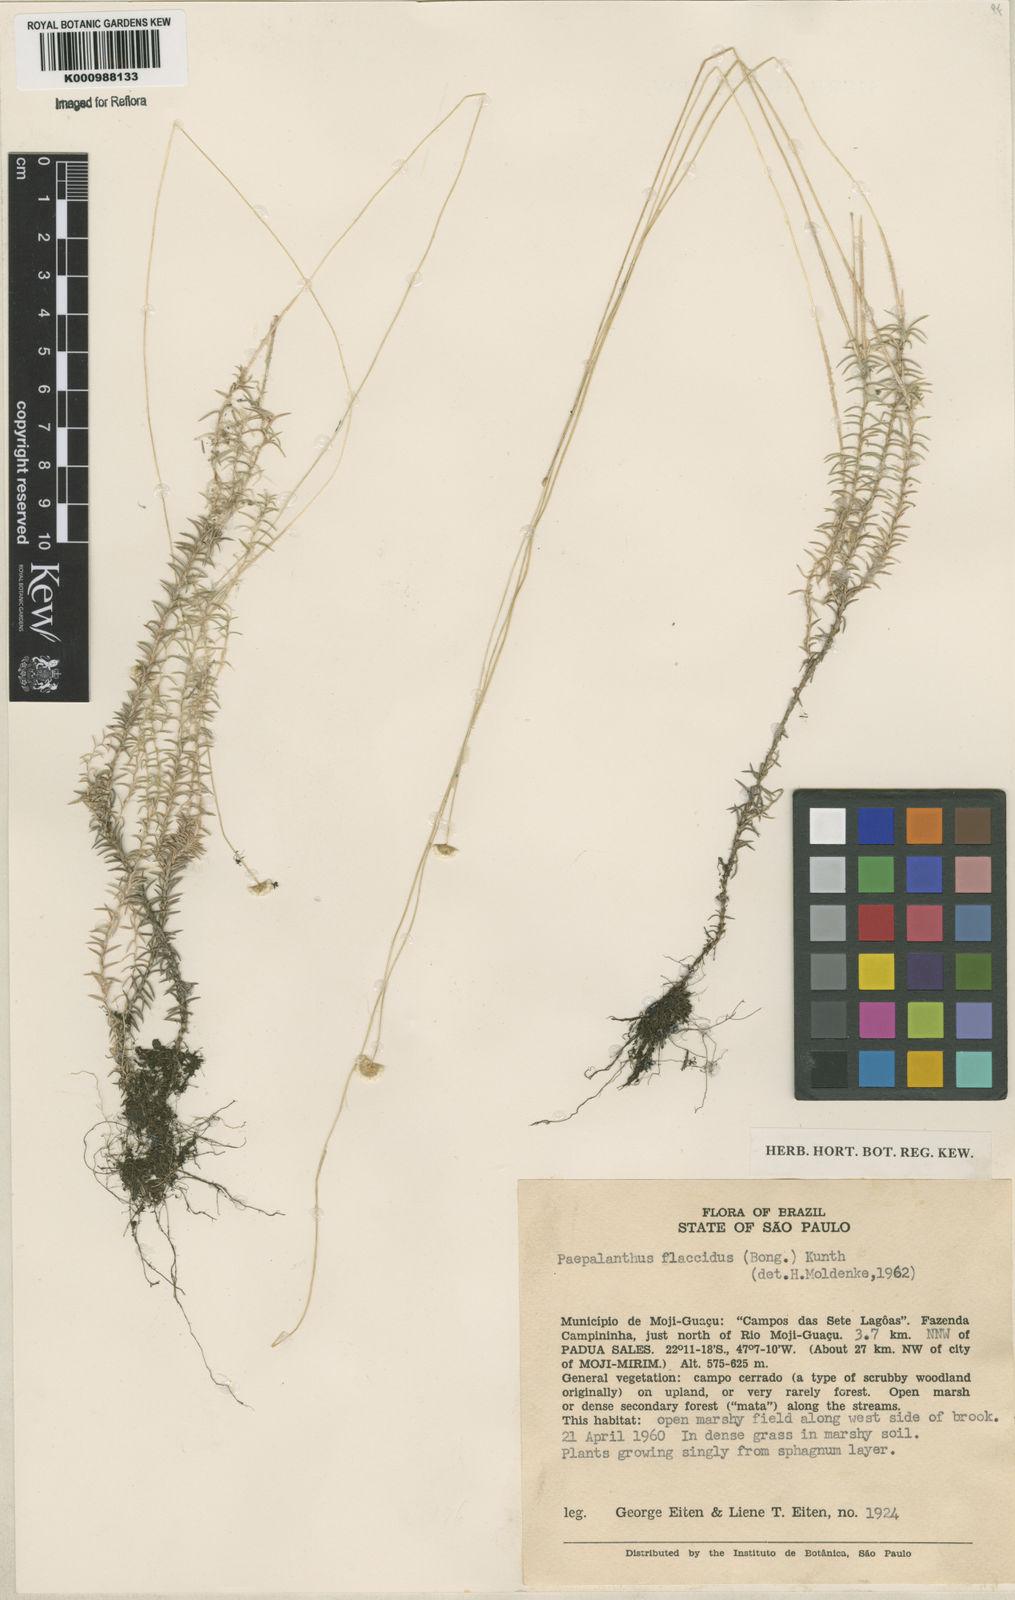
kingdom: Plantae
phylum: Tracheophyta
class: Liliopsida
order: Poales
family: Eriocaulaceae
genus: Paepalanthus
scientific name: Paepalanthus flaccidus
